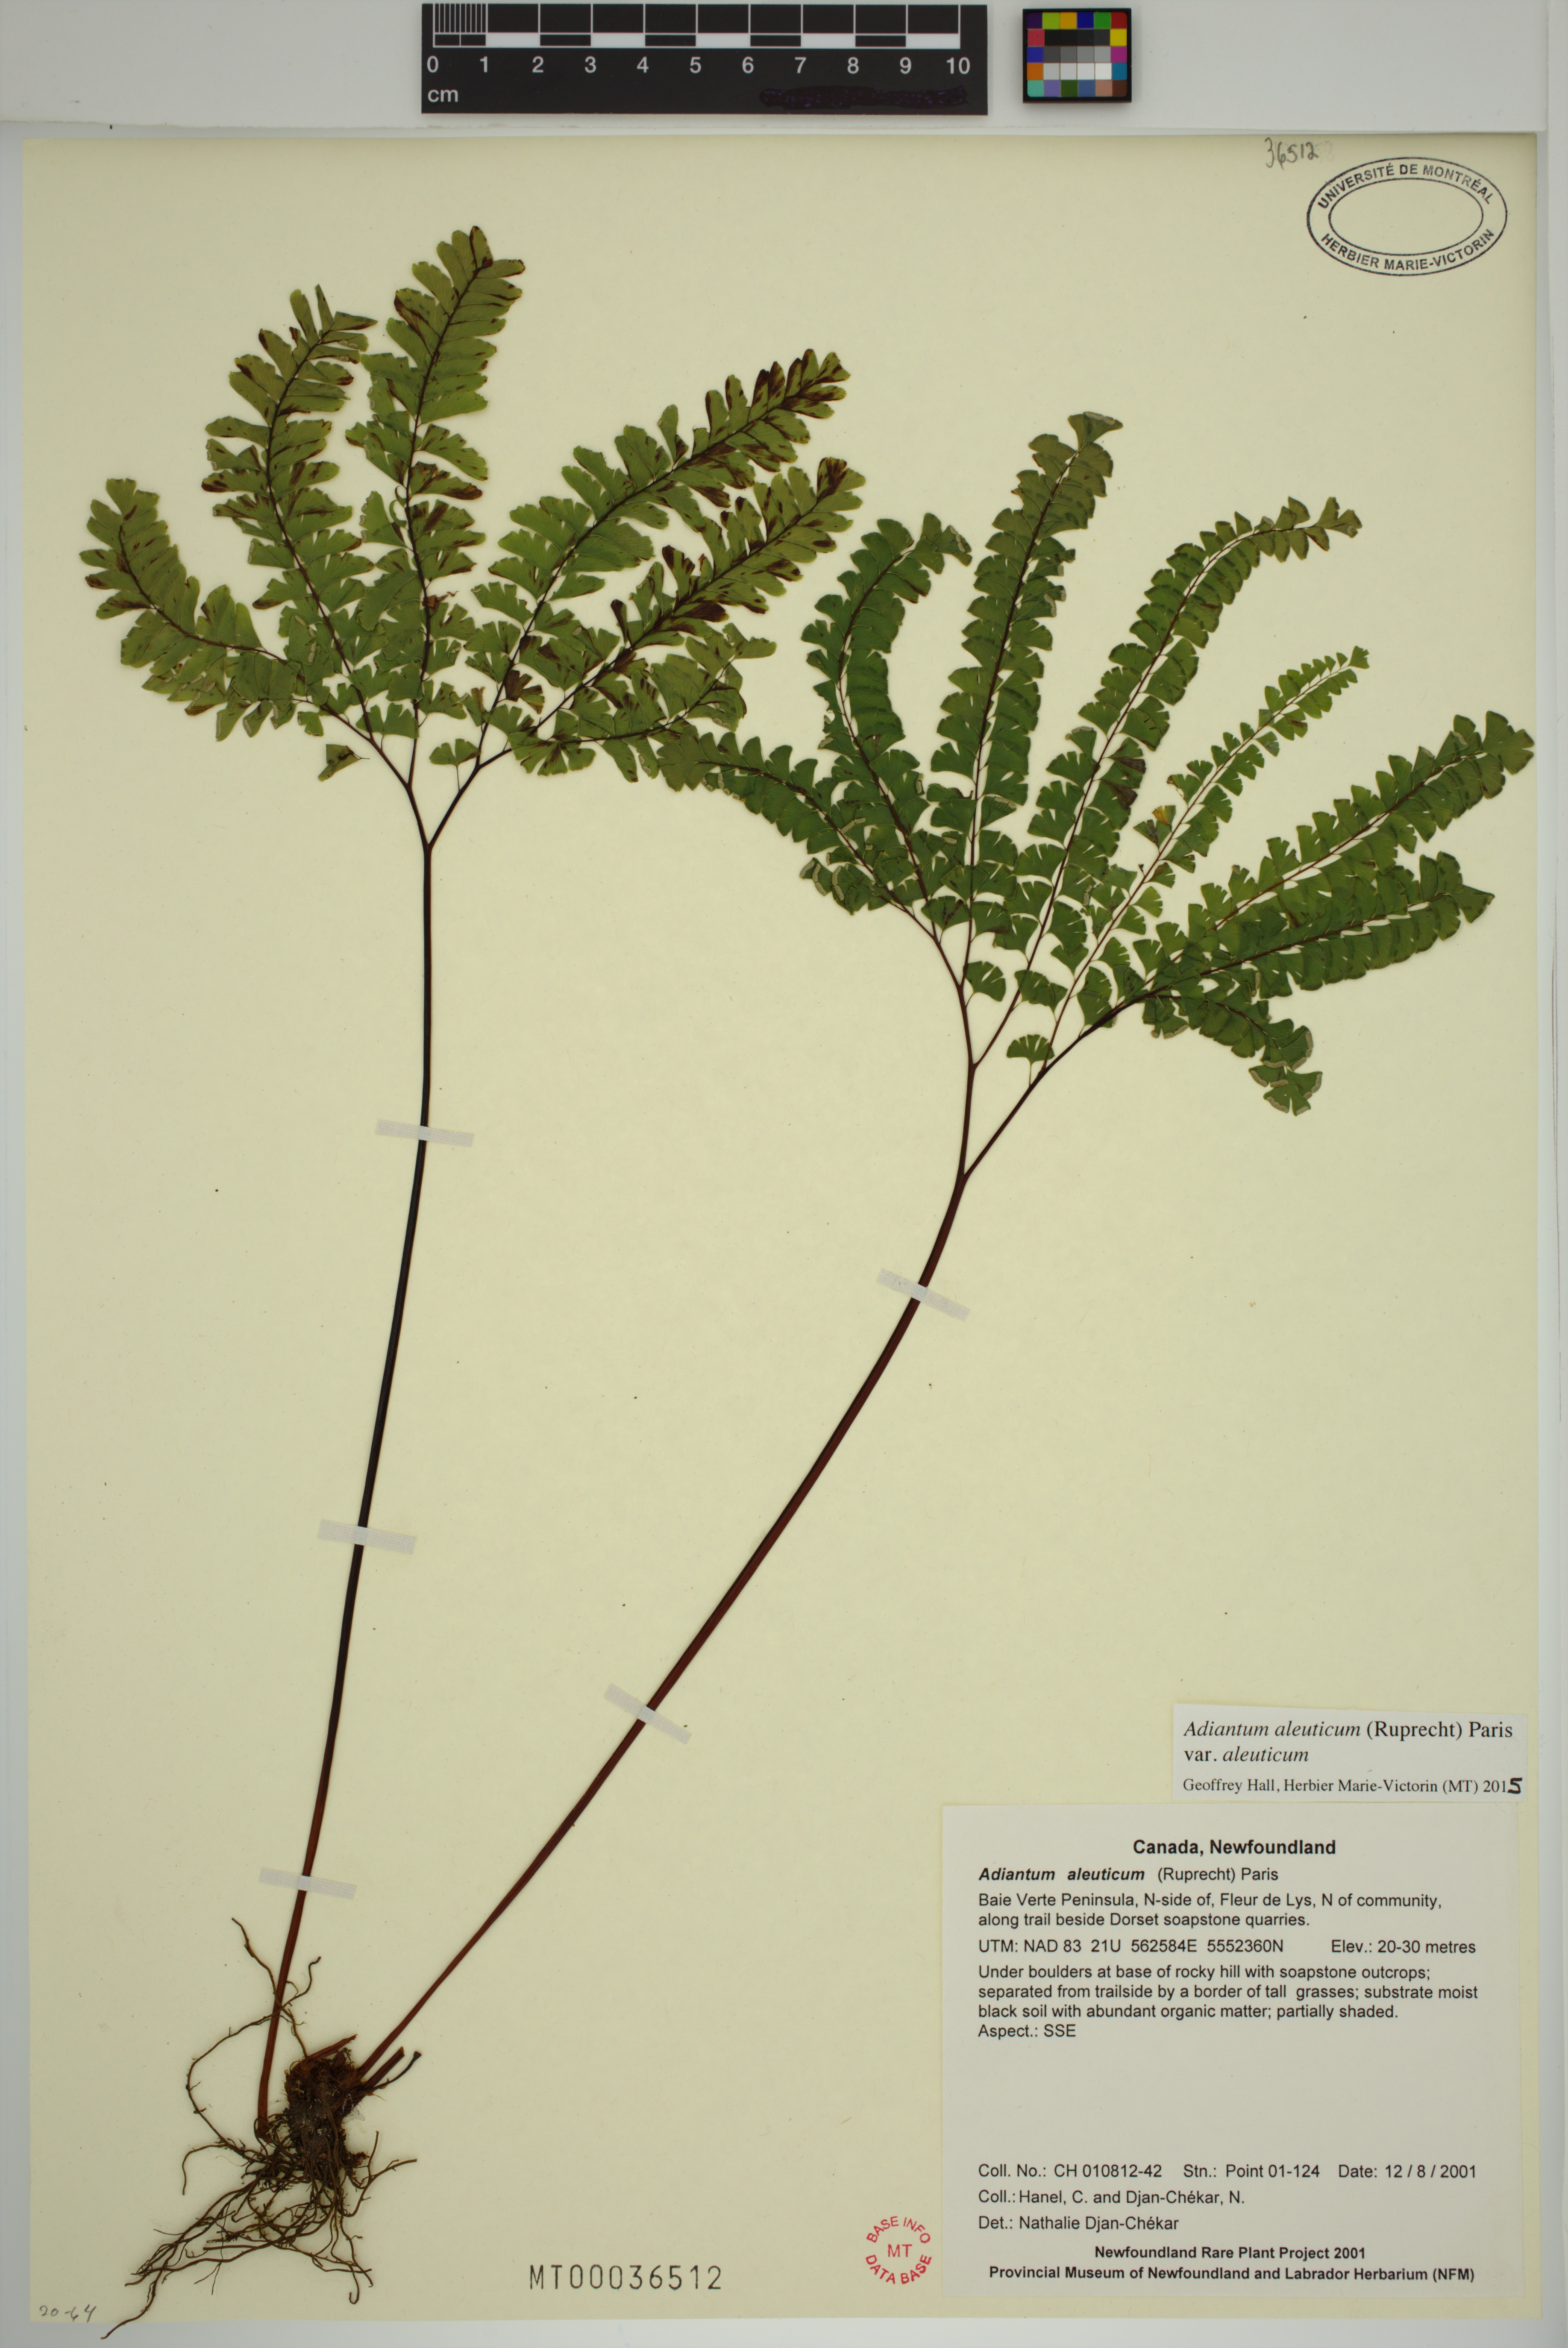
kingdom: Plantae
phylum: Tracheophyta
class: Polypodiopsida
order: Polypodiales
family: Pteridaceae
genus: Adiantum
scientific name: Adiantum aleuticum
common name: Aleutian maidenhair fern
